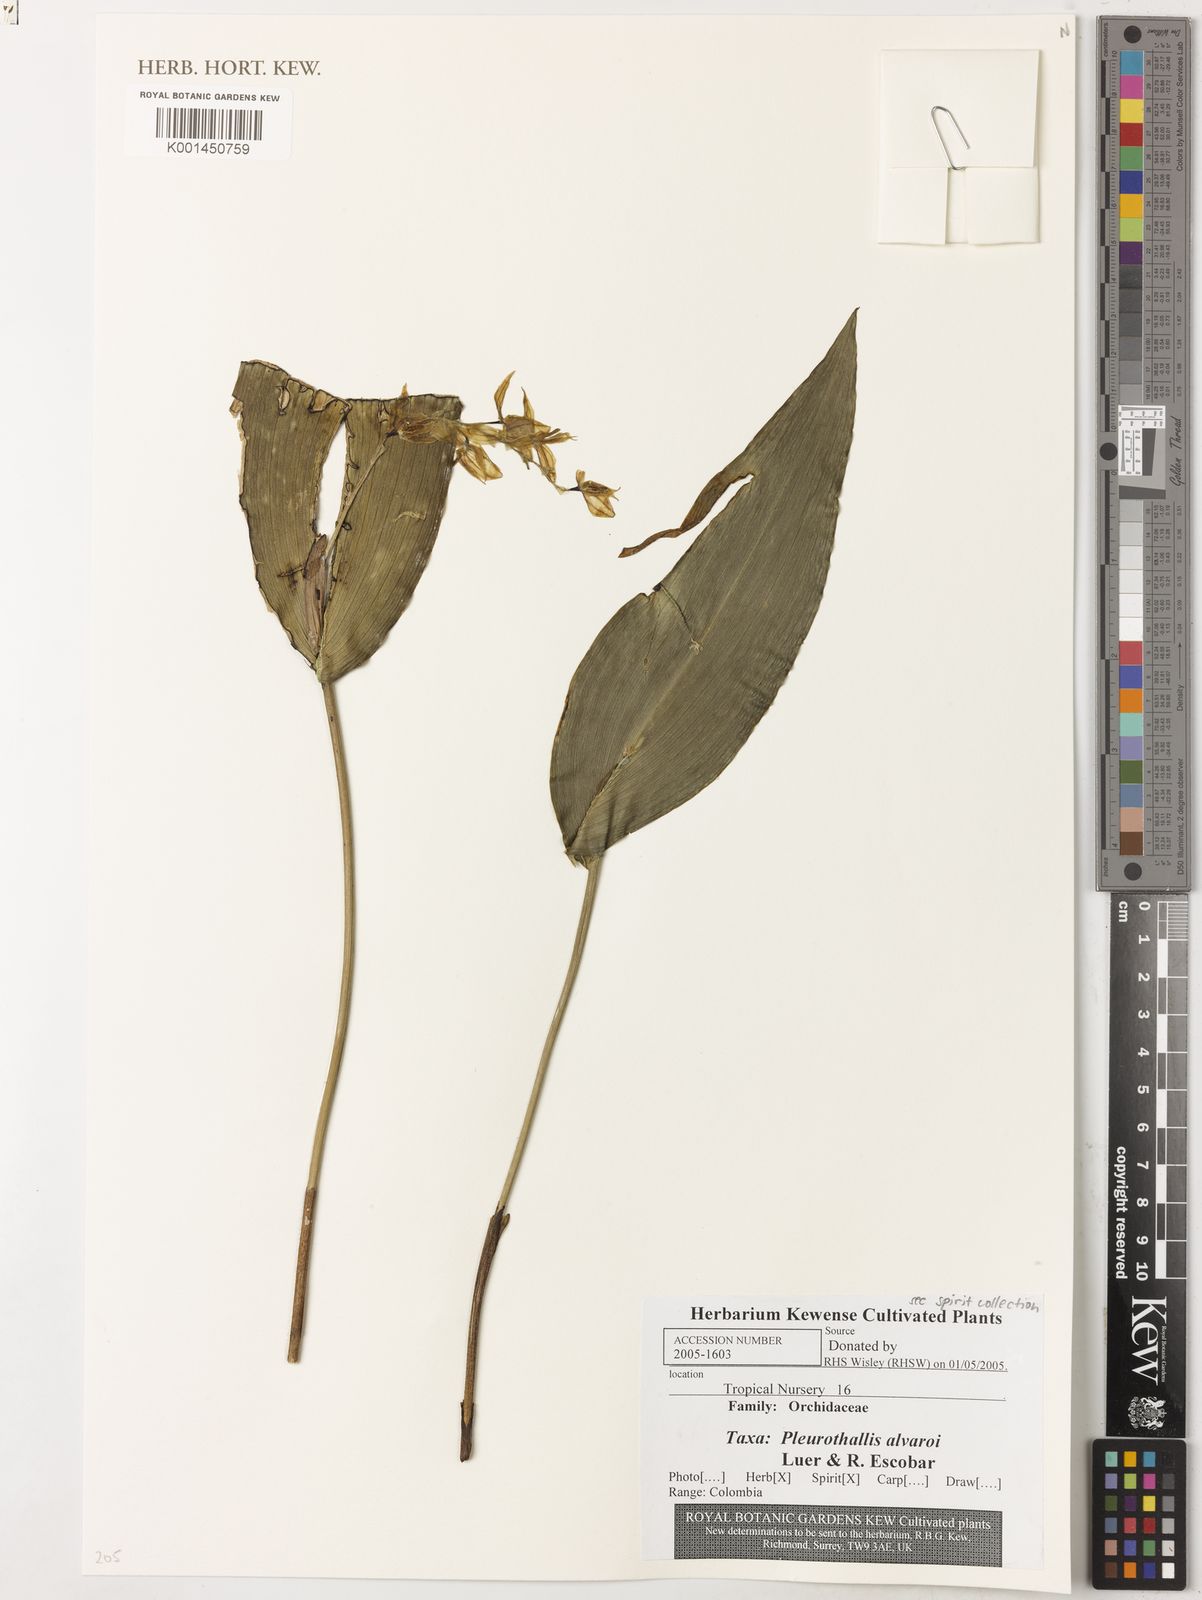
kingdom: Plantae
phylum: Tracheophyta
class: Liliopsida
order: Asparagales
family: Orchidaceae
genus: Pleurothallis
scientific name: Pleurothallis alvaroi
